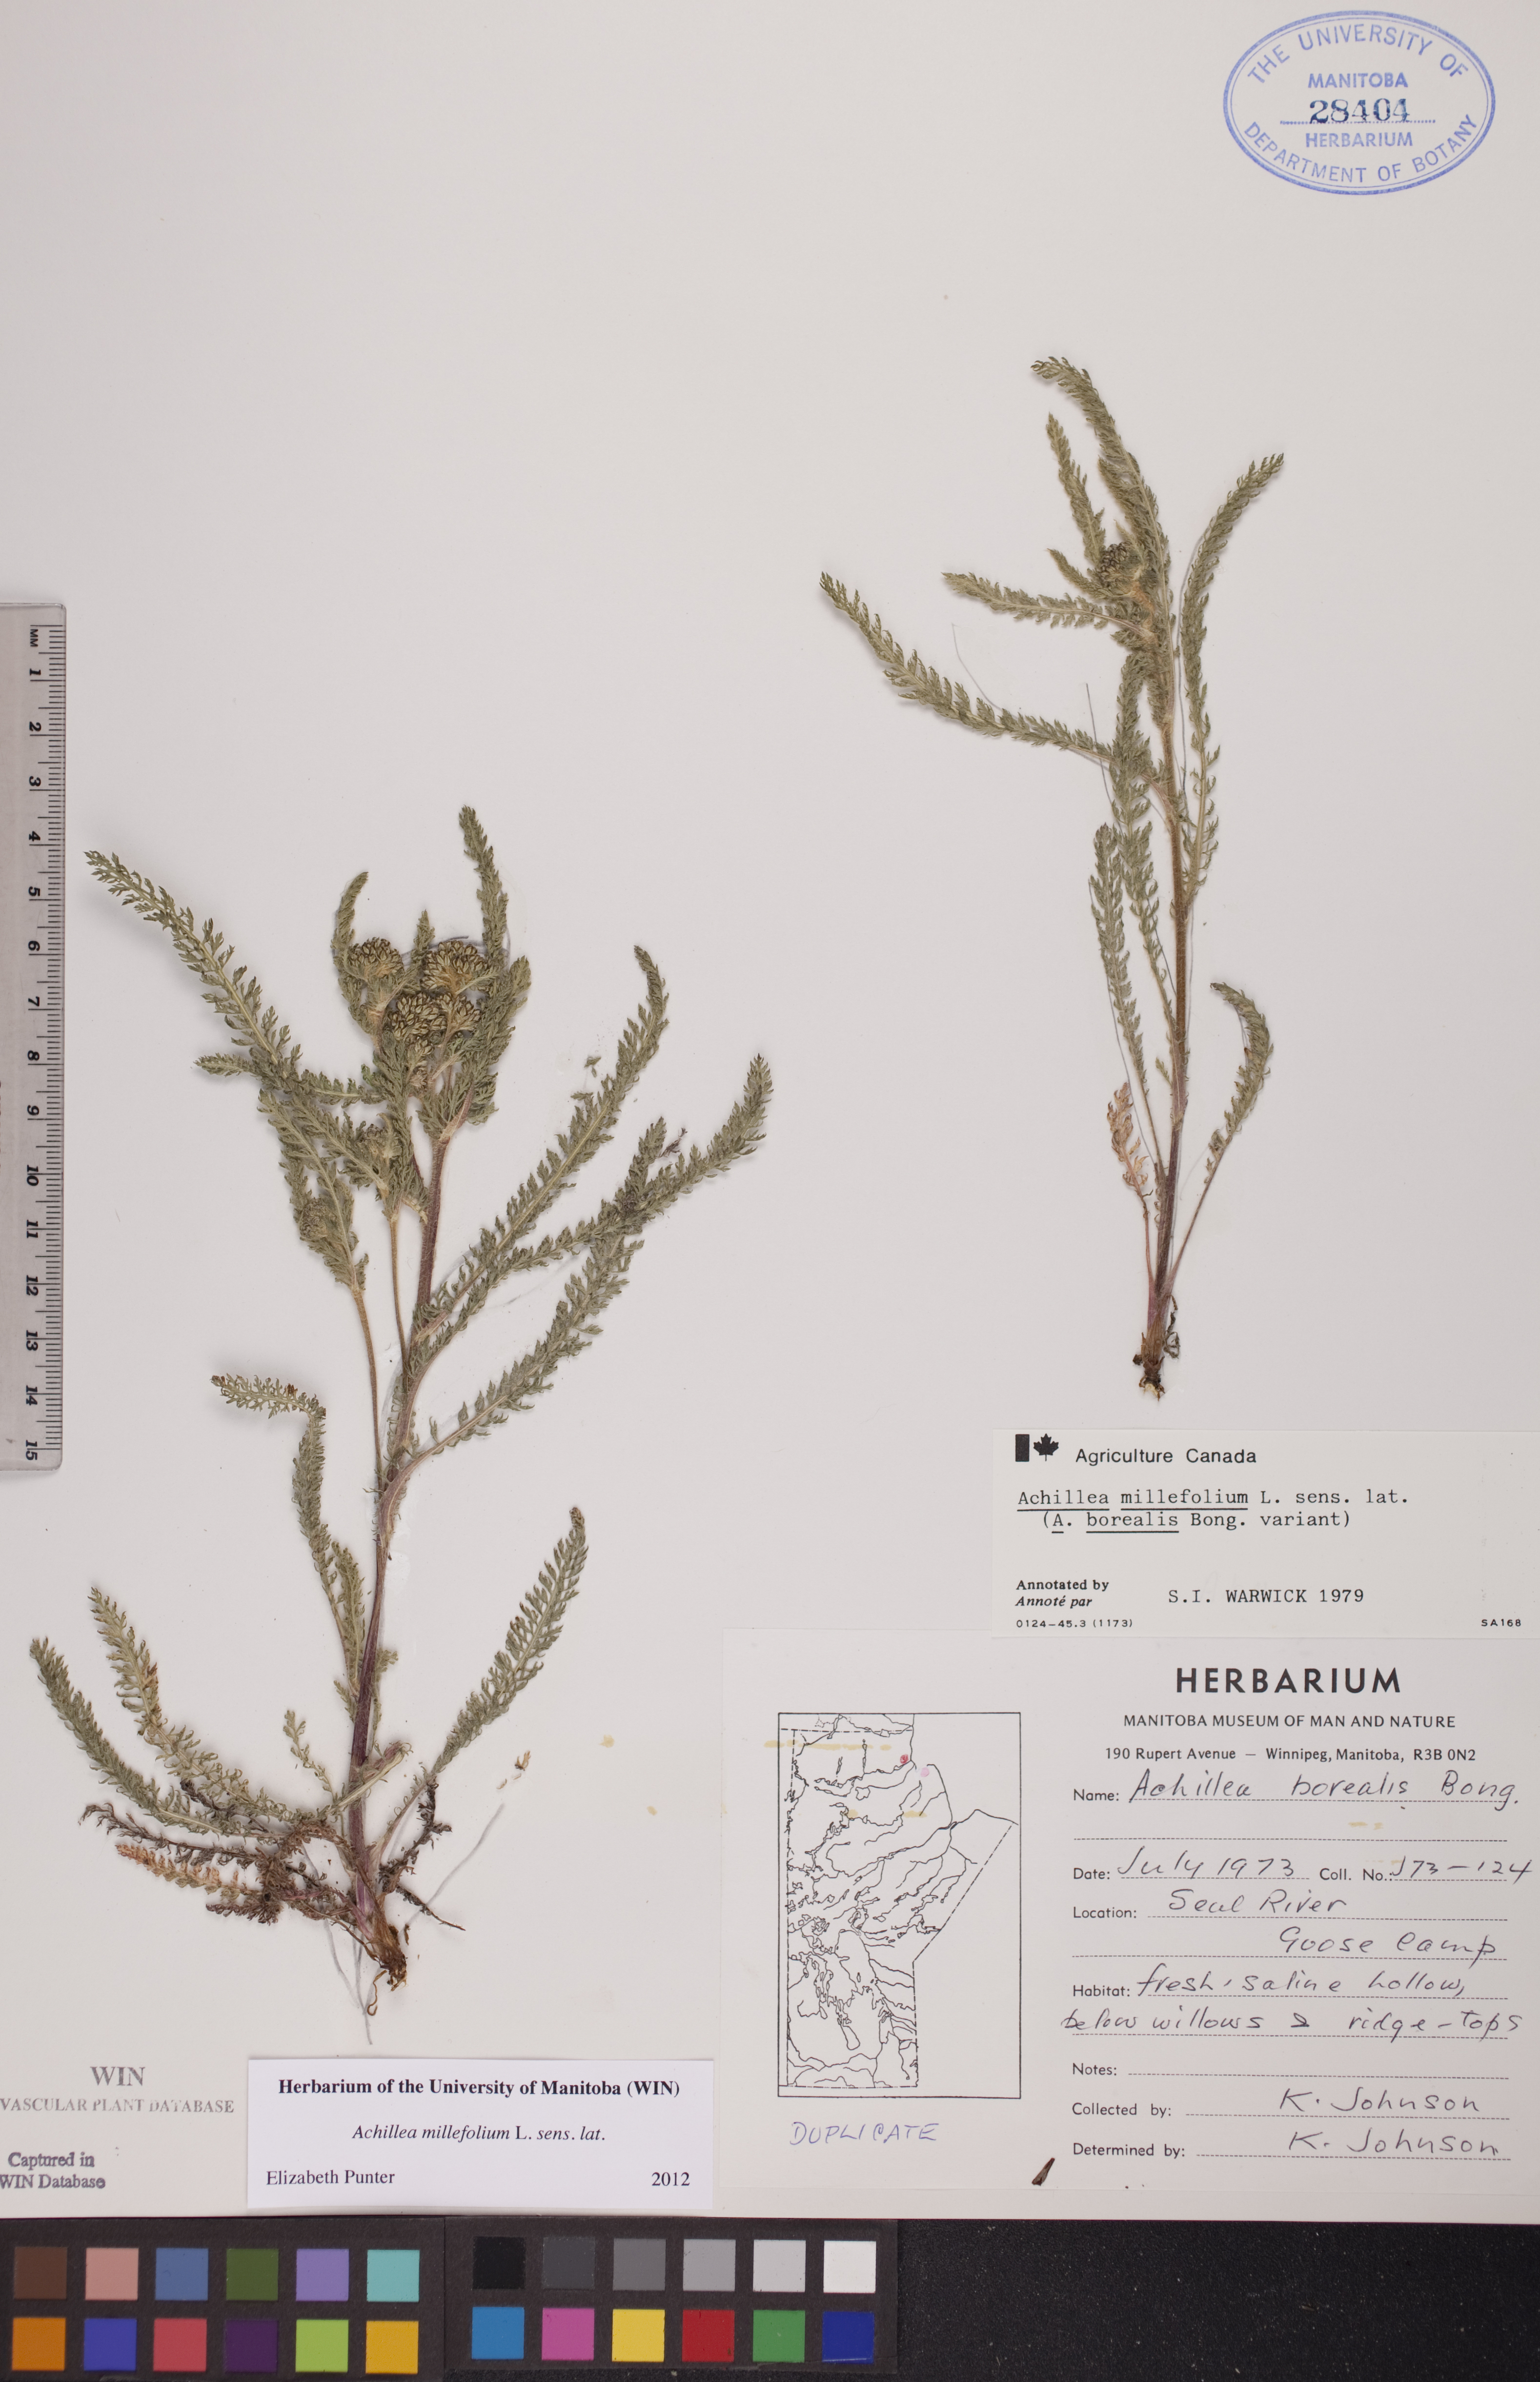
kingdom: Plantae
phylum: Tracheophyta
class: Magnoliopsida
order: Asterales
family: Asteraceae
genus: Achillea
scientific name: Achillea millefolium
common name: Yarrow
